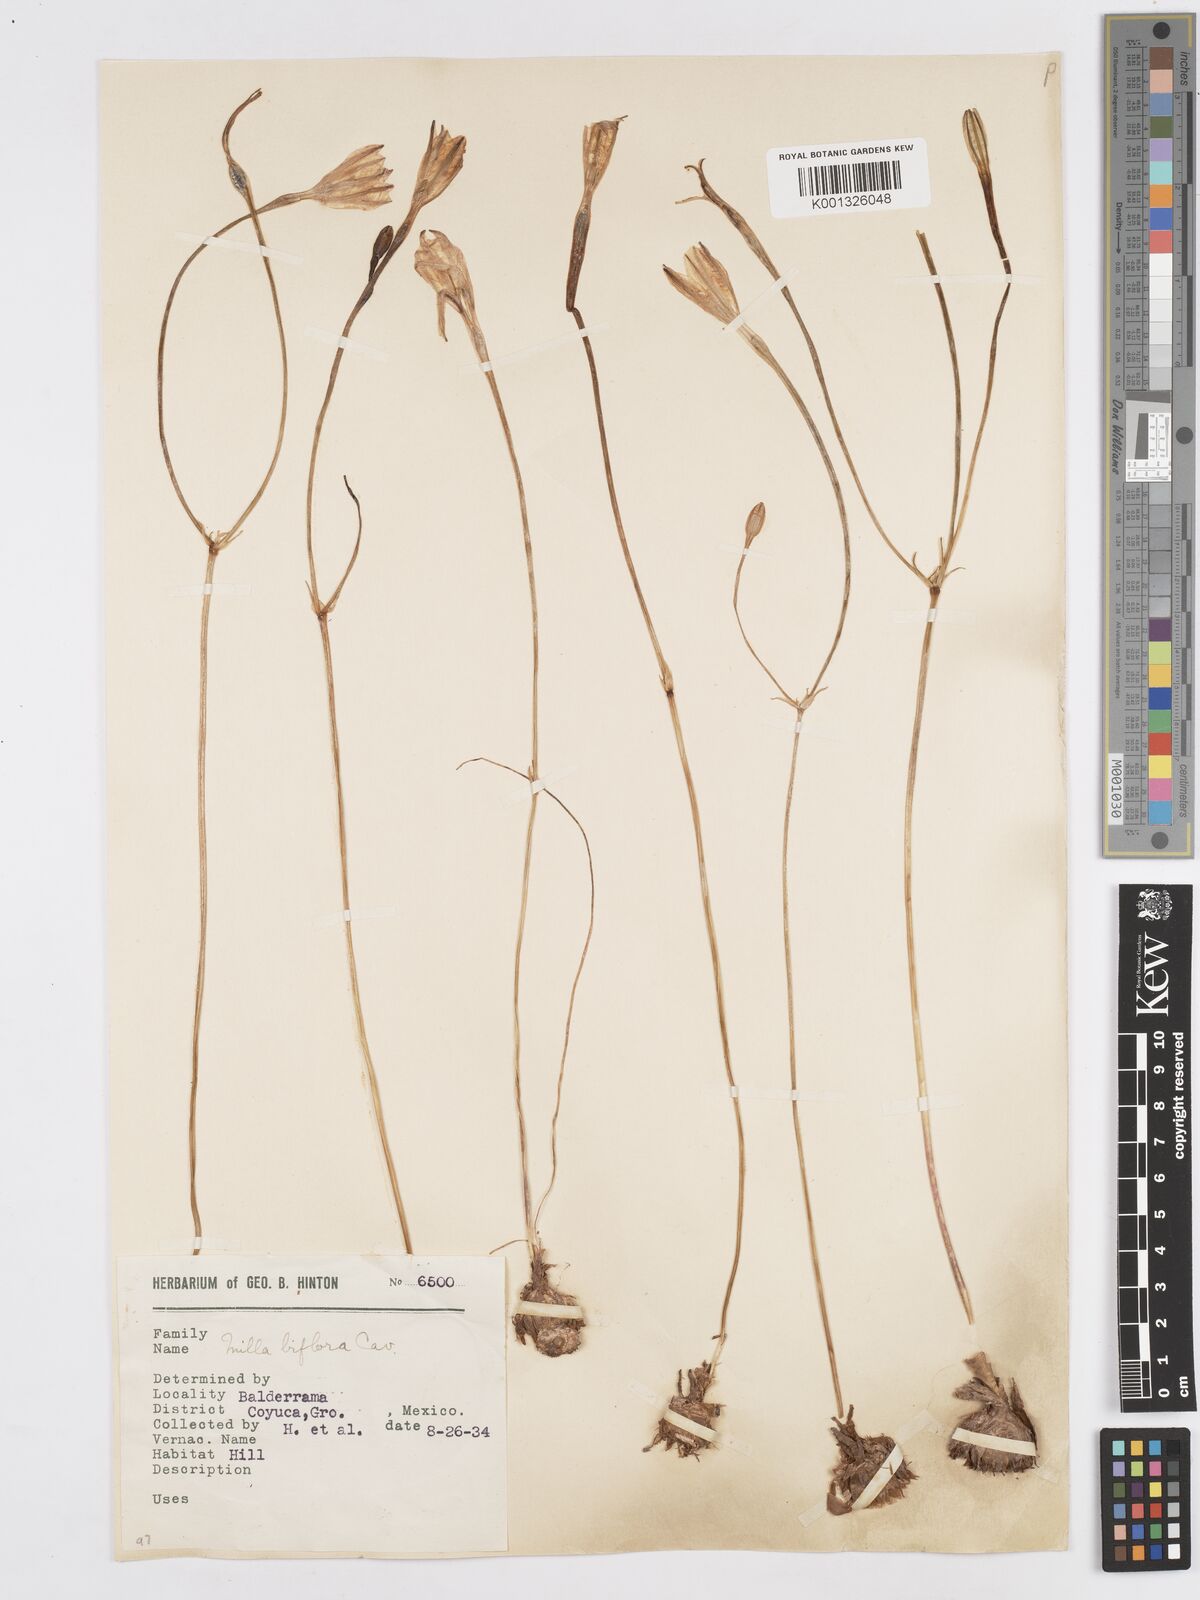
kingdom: Plantae
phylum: Tracheophyta
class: Liliopsida
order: Asparagales
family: Asparagaceae
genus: Milla
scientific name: Milla biflora
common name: Mexican-star
